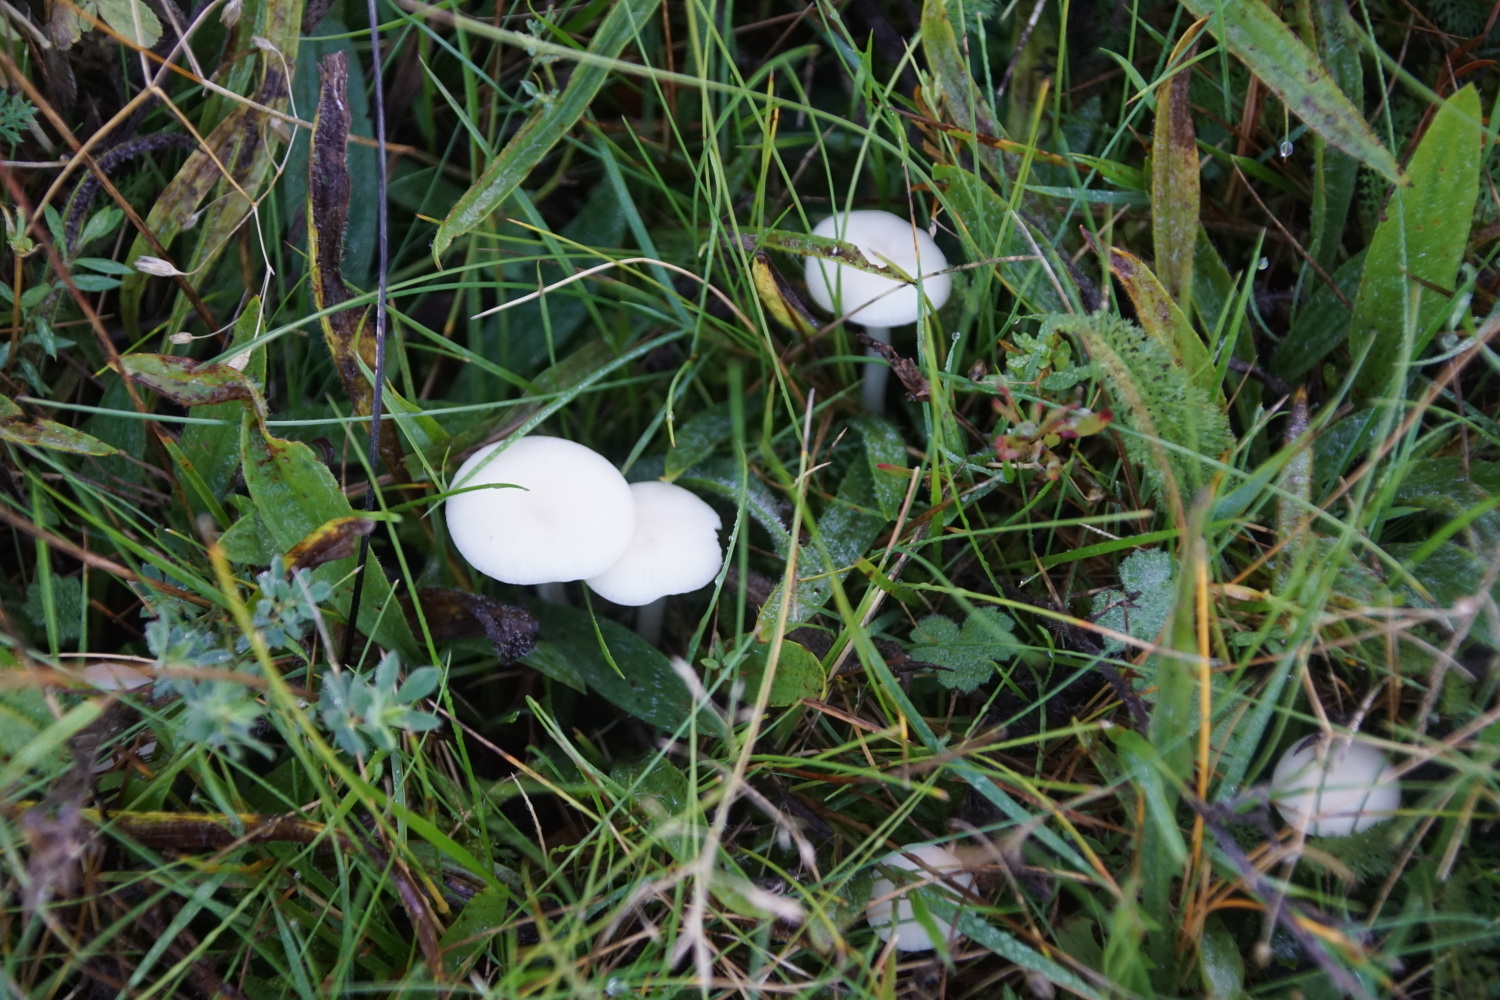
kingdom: Fungi
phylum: Basidiomycota
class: Agaricomycetes
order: Agaricales
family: Hygrophoraceae
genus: Cuphophyllus
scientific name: Cuphophyllus virgineus
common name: snehvid vokshat
